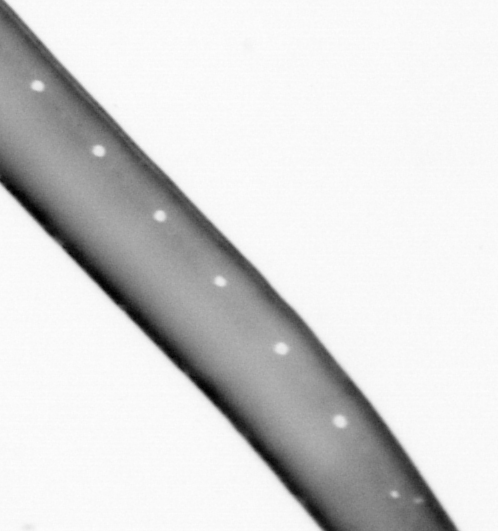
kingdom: Animalia
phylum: Chordata
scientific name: Chordata
